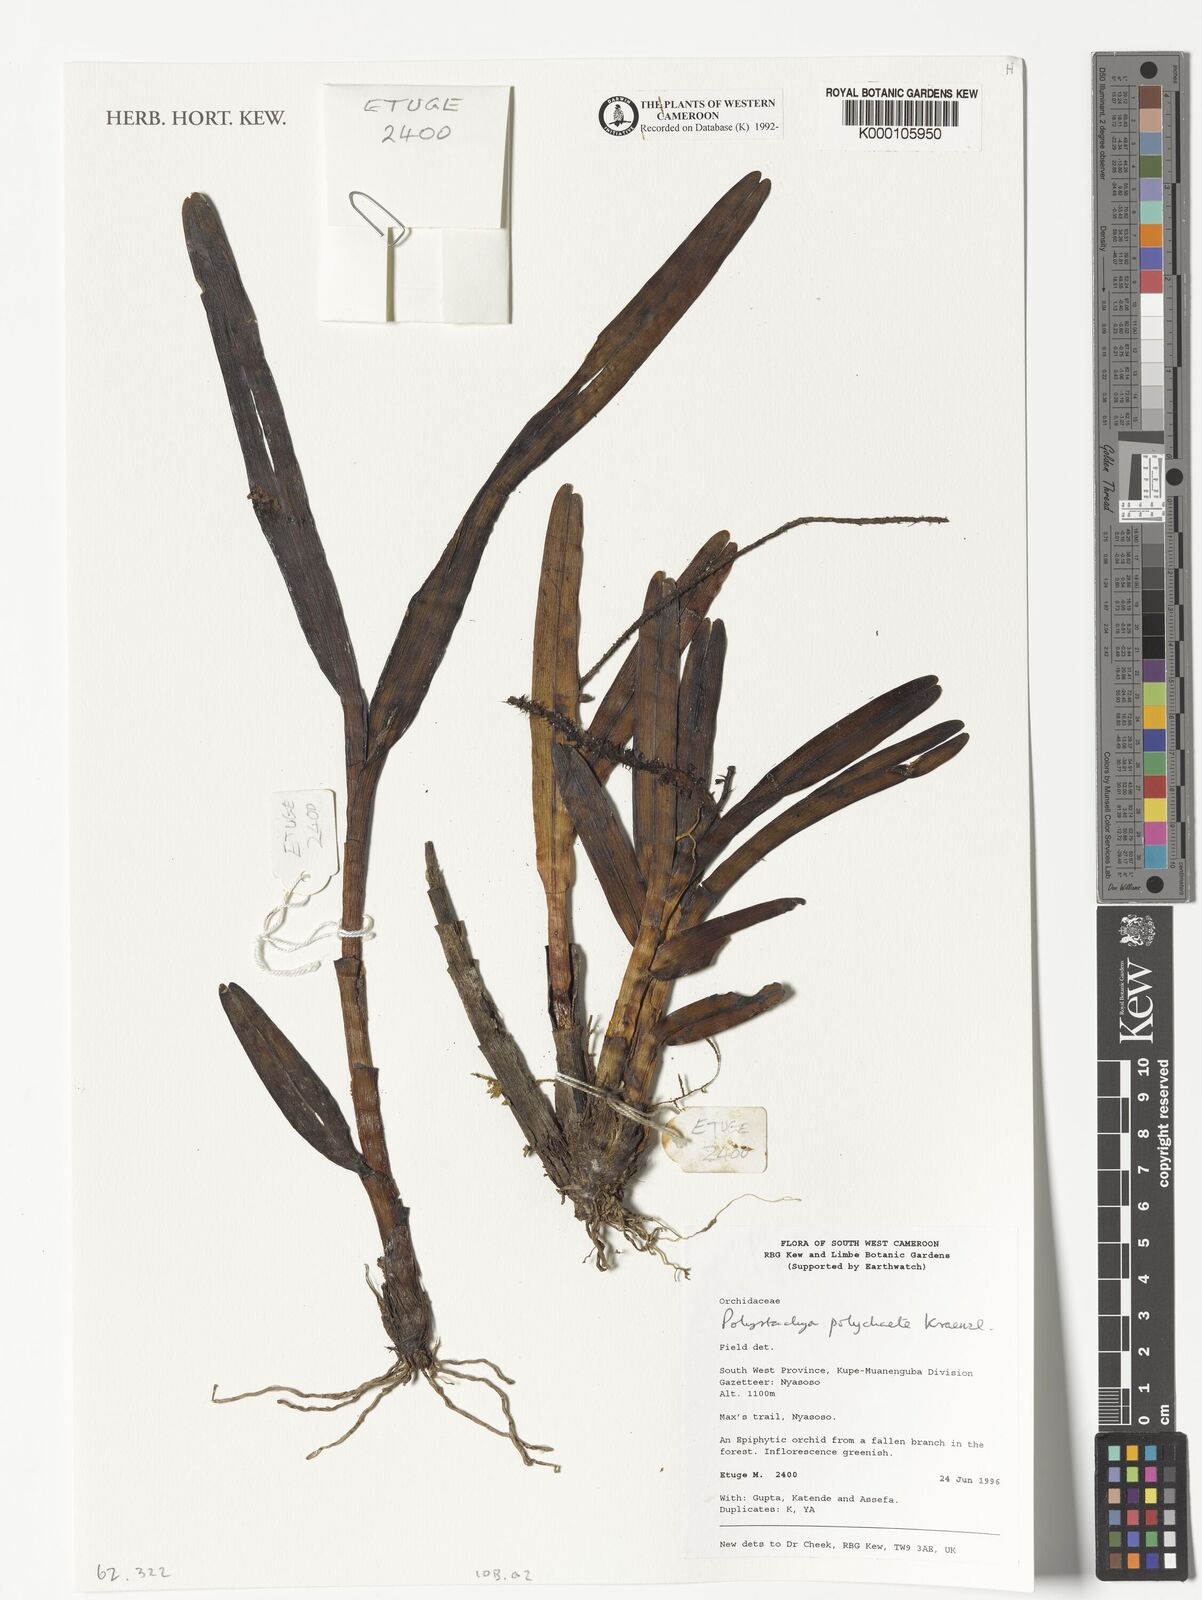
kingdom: Plantae
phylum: Tracheophyta
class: Liliopsida
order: Asparagales
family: Orchidaceae
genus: Polystachya
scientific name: Polystachya polychaete
